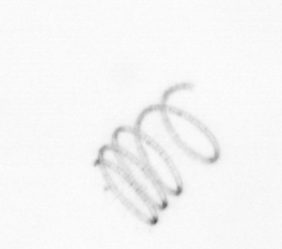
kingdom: Chromista
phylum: Ochrophyta
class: Bacillariophyceae
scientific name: Bacillariophyceae
